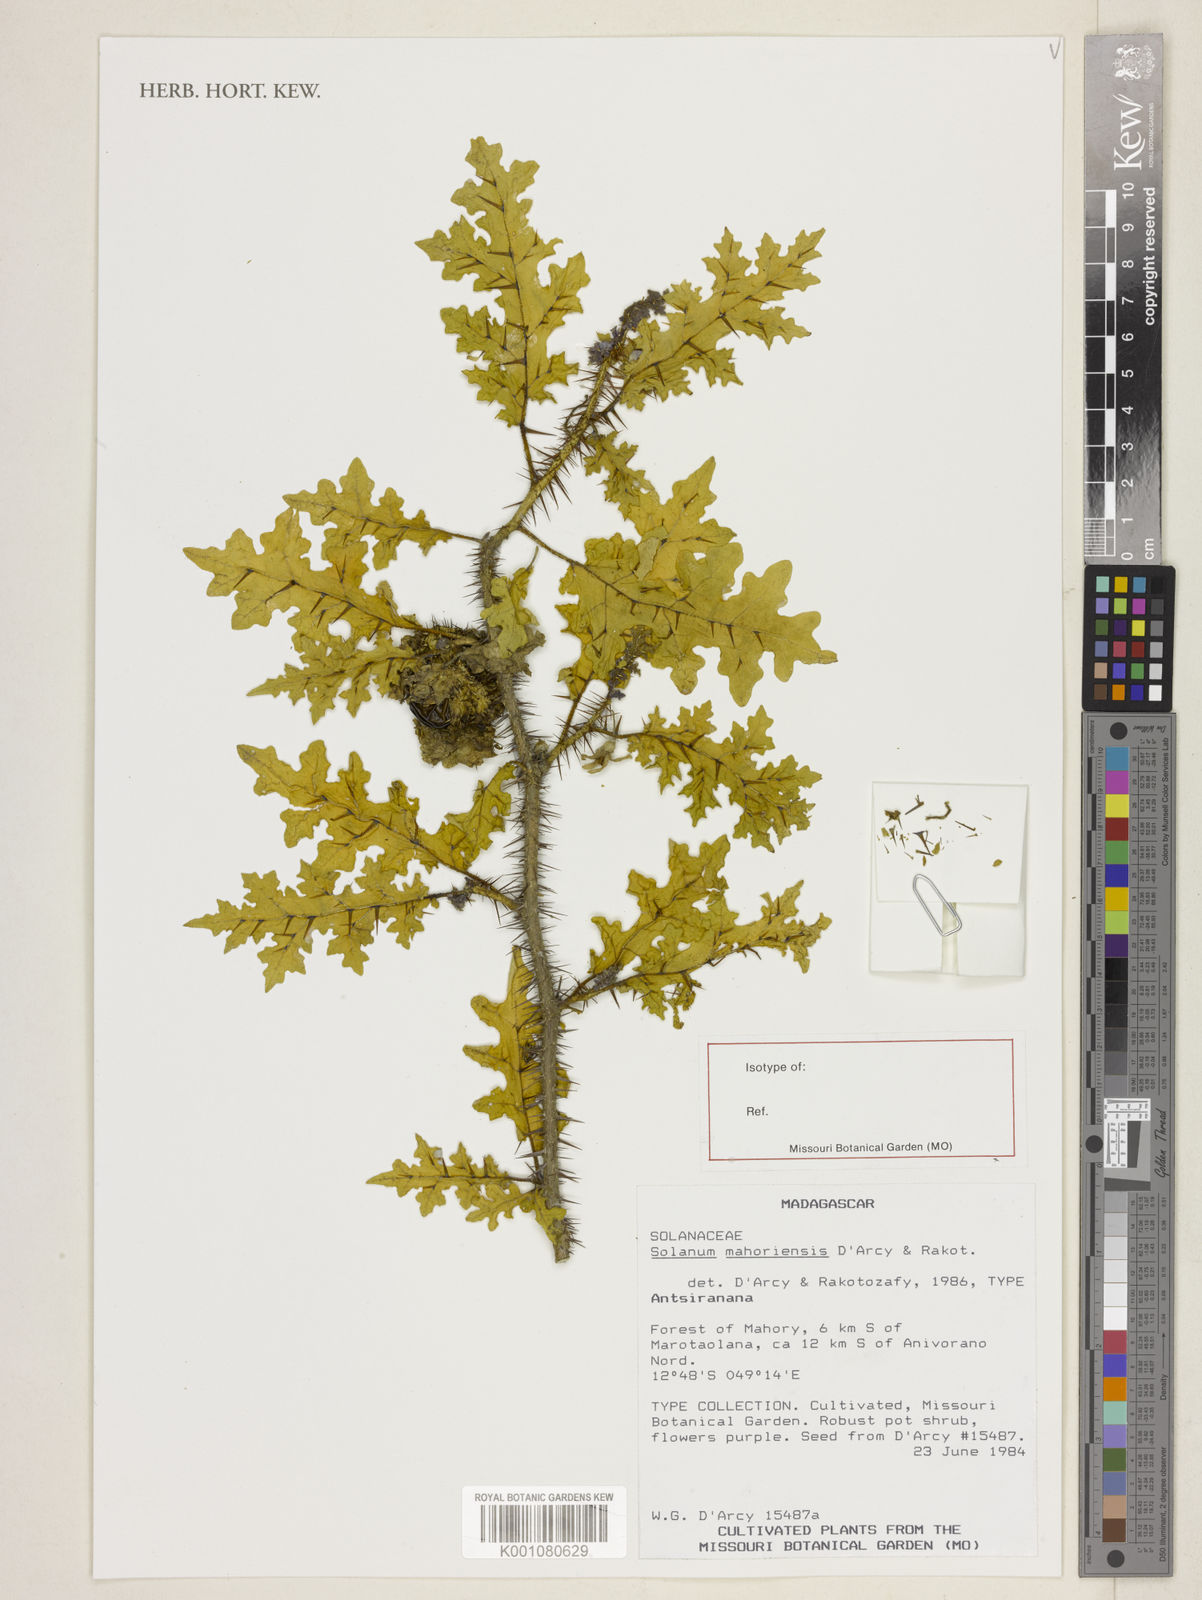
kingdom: Plantae
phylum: Tracheophyta
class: Magnoliopsida
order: Solanales
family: Solanaceae
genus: Solanum
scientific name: Solanum mahoriense
